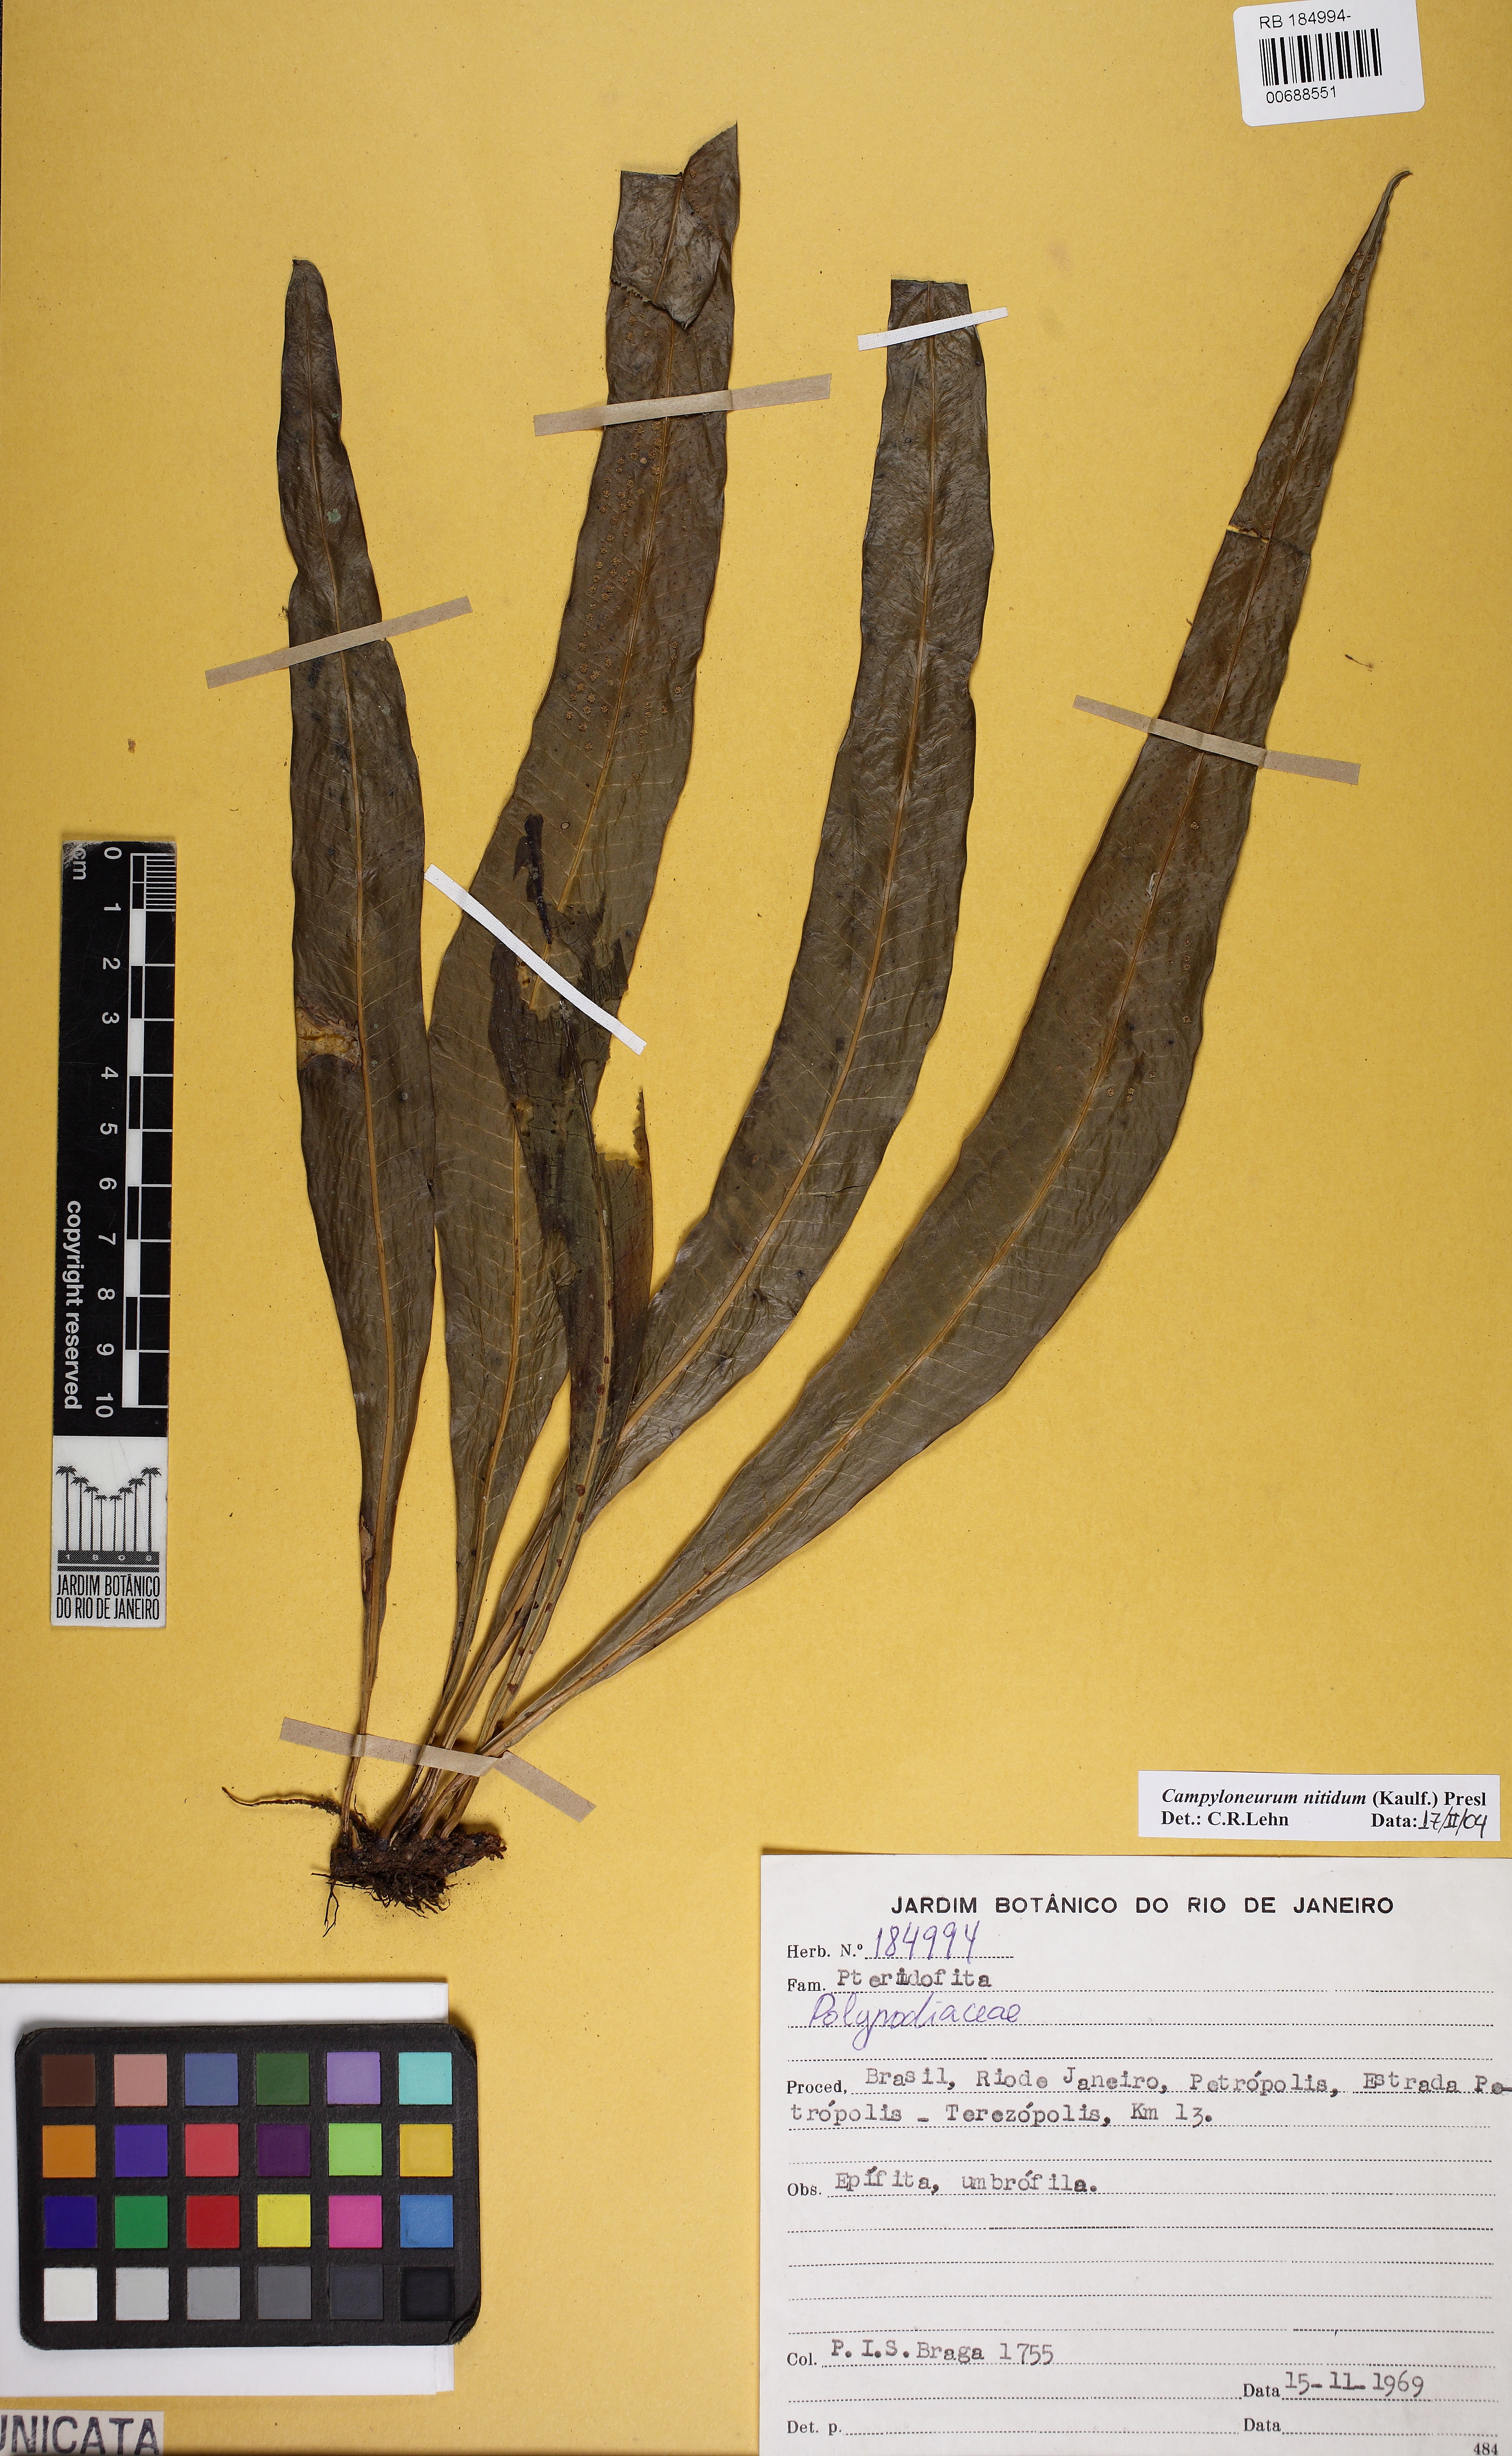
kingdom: Plantae
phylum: Tracheophyta
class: Polypodiopsida
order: Polypodiales
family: Polypodiaceae
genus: Campyloneurum
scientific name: Campyloneurum nitidum
